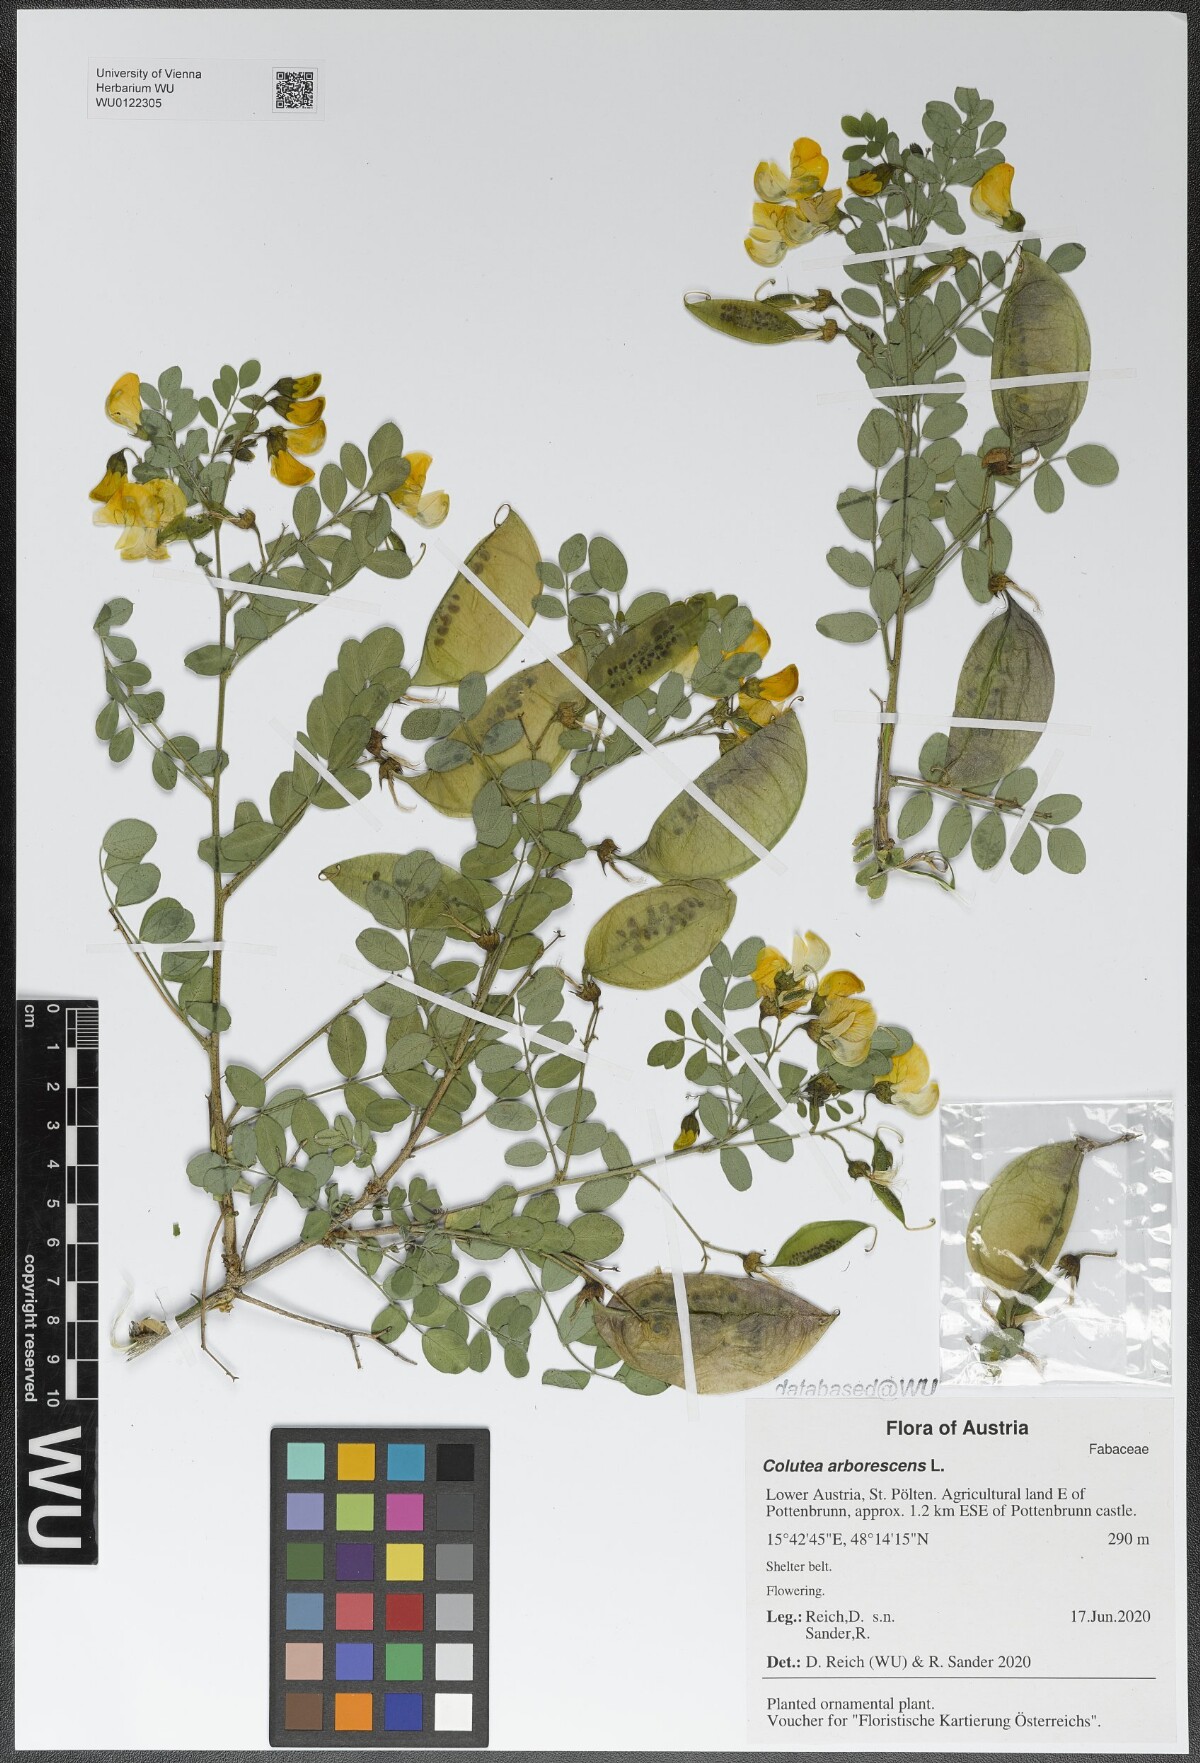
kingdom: Plantae
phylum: Tracheophyta
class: Magnoliopsida
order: Fabales
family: Fabaceae
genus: Colutea
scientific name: Colutea arborescens
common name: Bladder-senna
